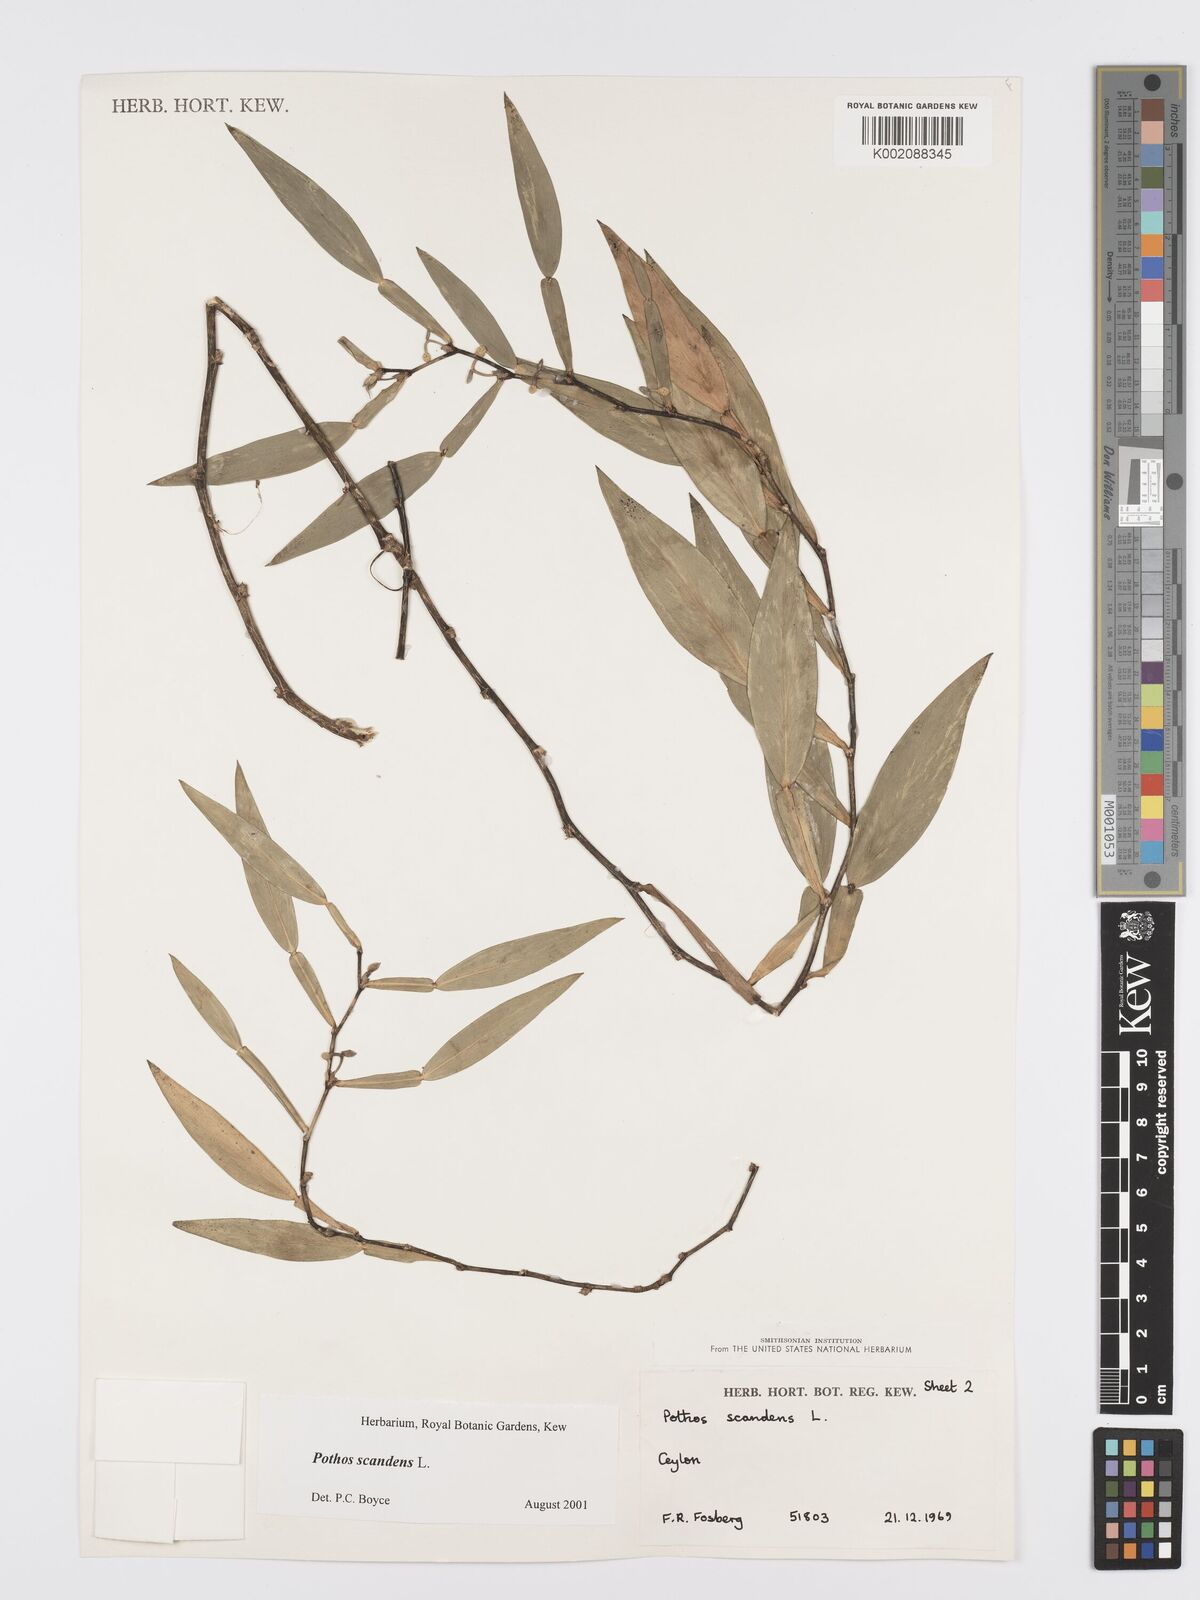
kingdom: Plantae
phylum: Tracheophyta
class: Liliopsida
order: Alismatales
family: Araceae
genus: Pothos
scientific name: Pothos scandens
